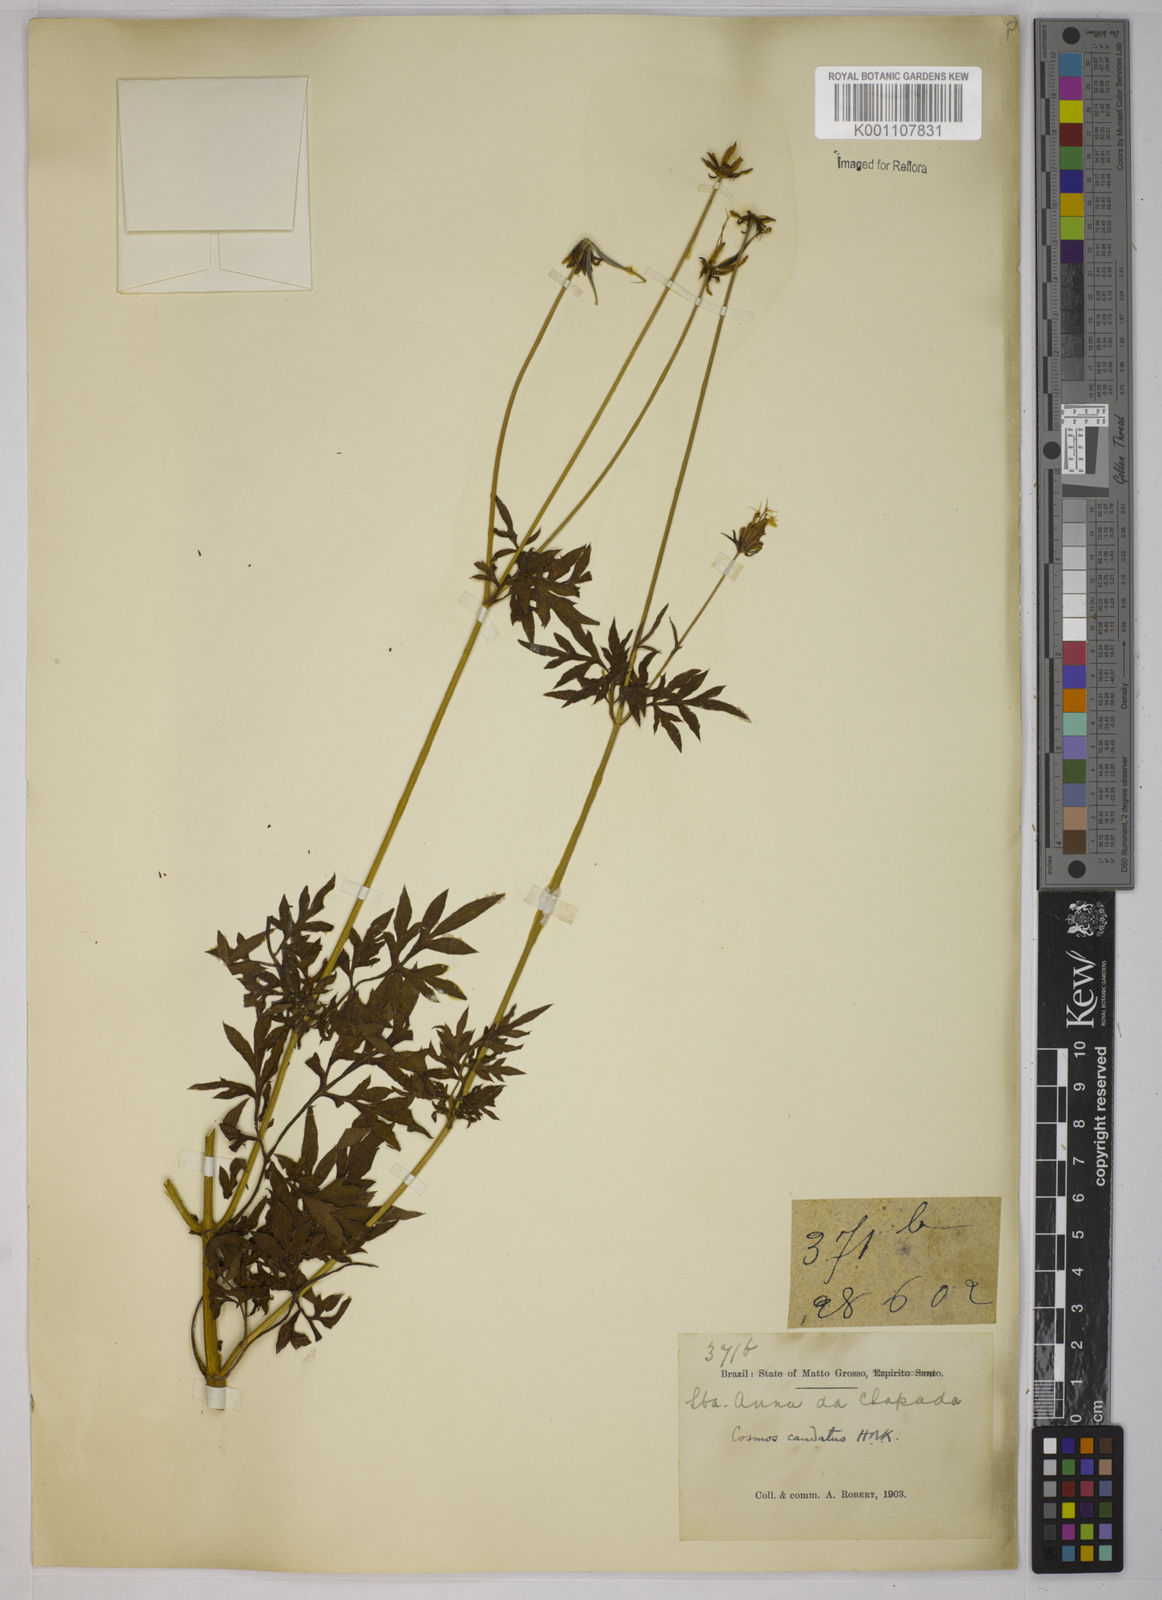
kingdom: Plantae
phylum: Tracheophyta
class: Magnoliopsida
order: Asterales
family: Asteraceae
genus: Cosmos
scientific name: Cosmos caudatus
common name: Wild cosmos
